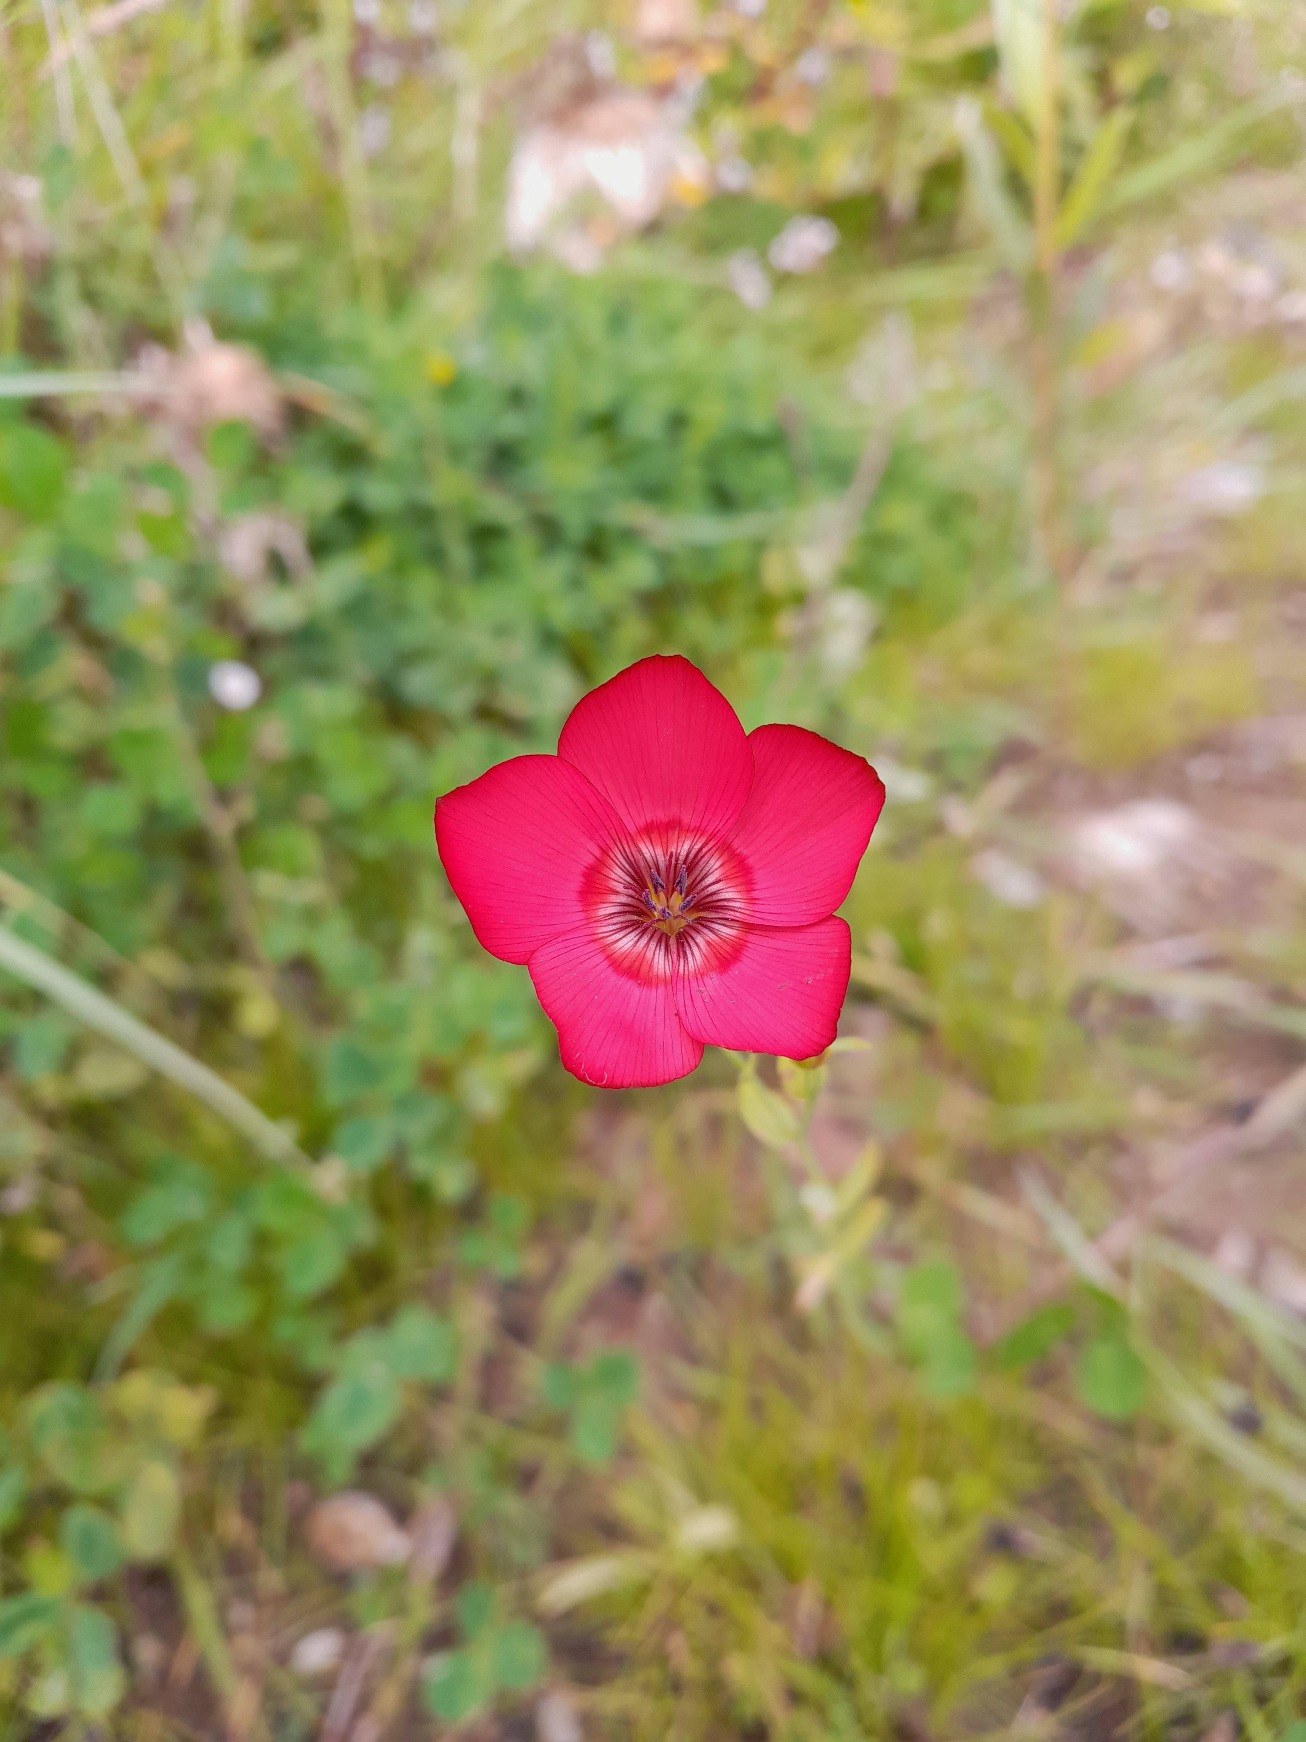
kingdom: Plantae
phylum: Tracheophyta
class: Magnoliopsida
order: Malpighiales
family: Linaceae
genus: Linum
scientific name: Linum grandiflorum
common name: Rød hør
